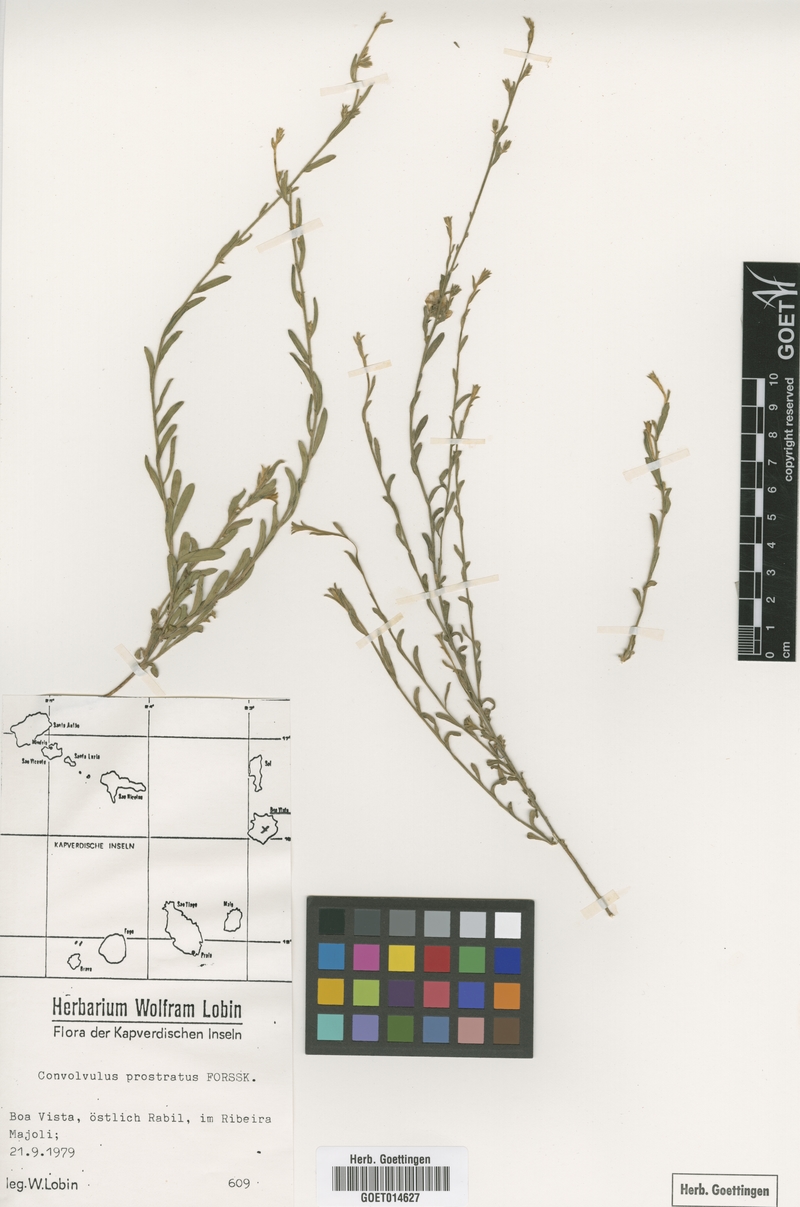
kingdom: Plantae
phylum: Tracheophyta
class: Magnoliopsida
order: Solanales
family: Convolvulaceae
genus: Convolvulus
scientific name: Convolvulus prostratus
